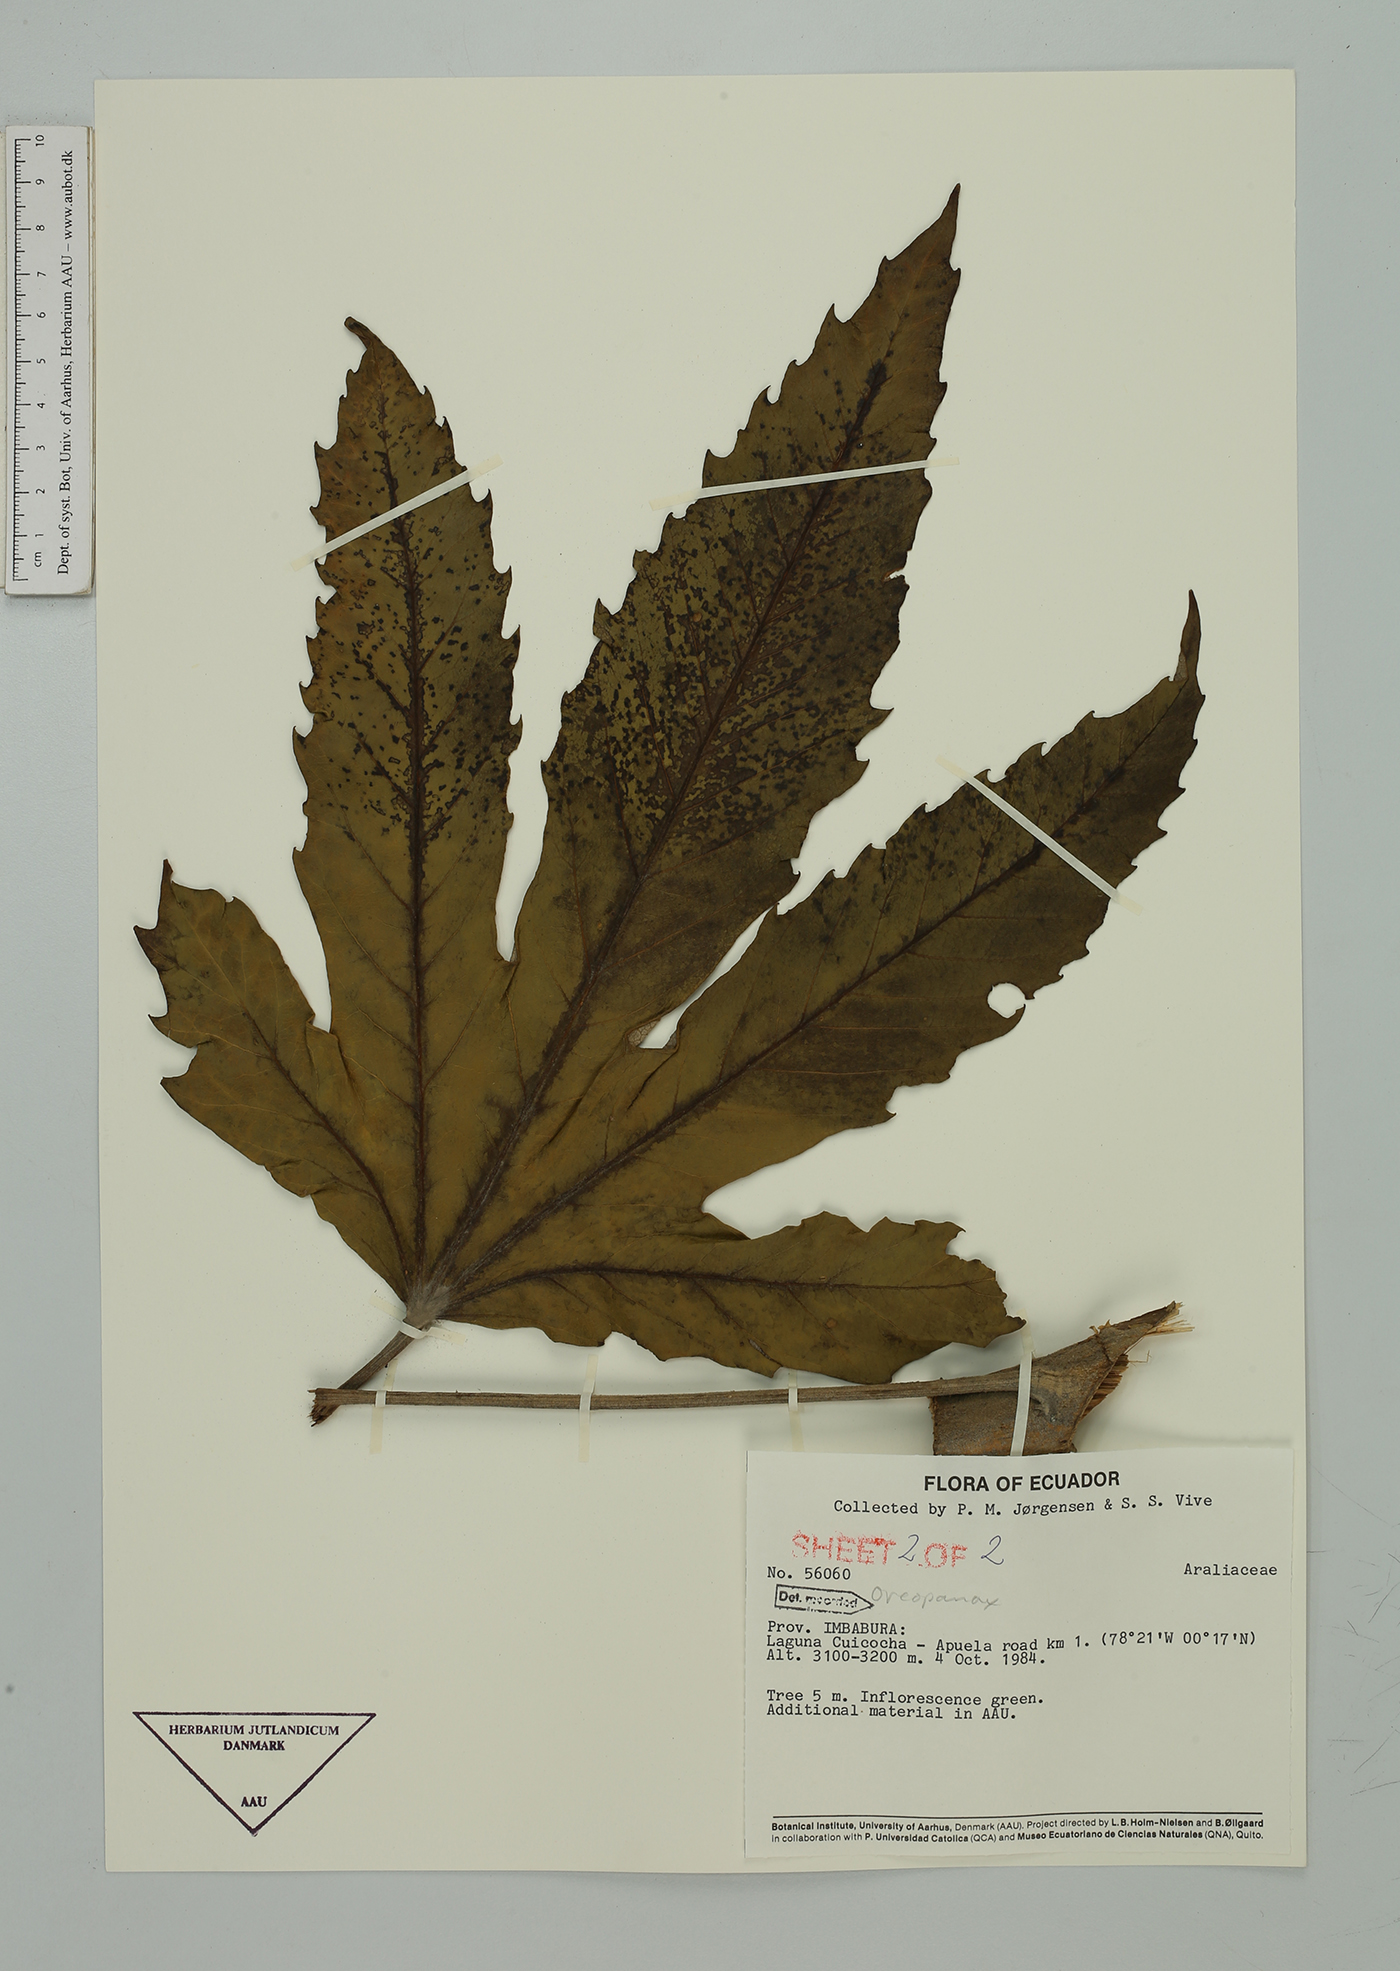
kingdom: Plantae
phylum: Tracheophyta
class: Magnoliopsida
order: Apiales
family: Araliaceae
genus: Oreopanax
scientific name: Oreopanax
